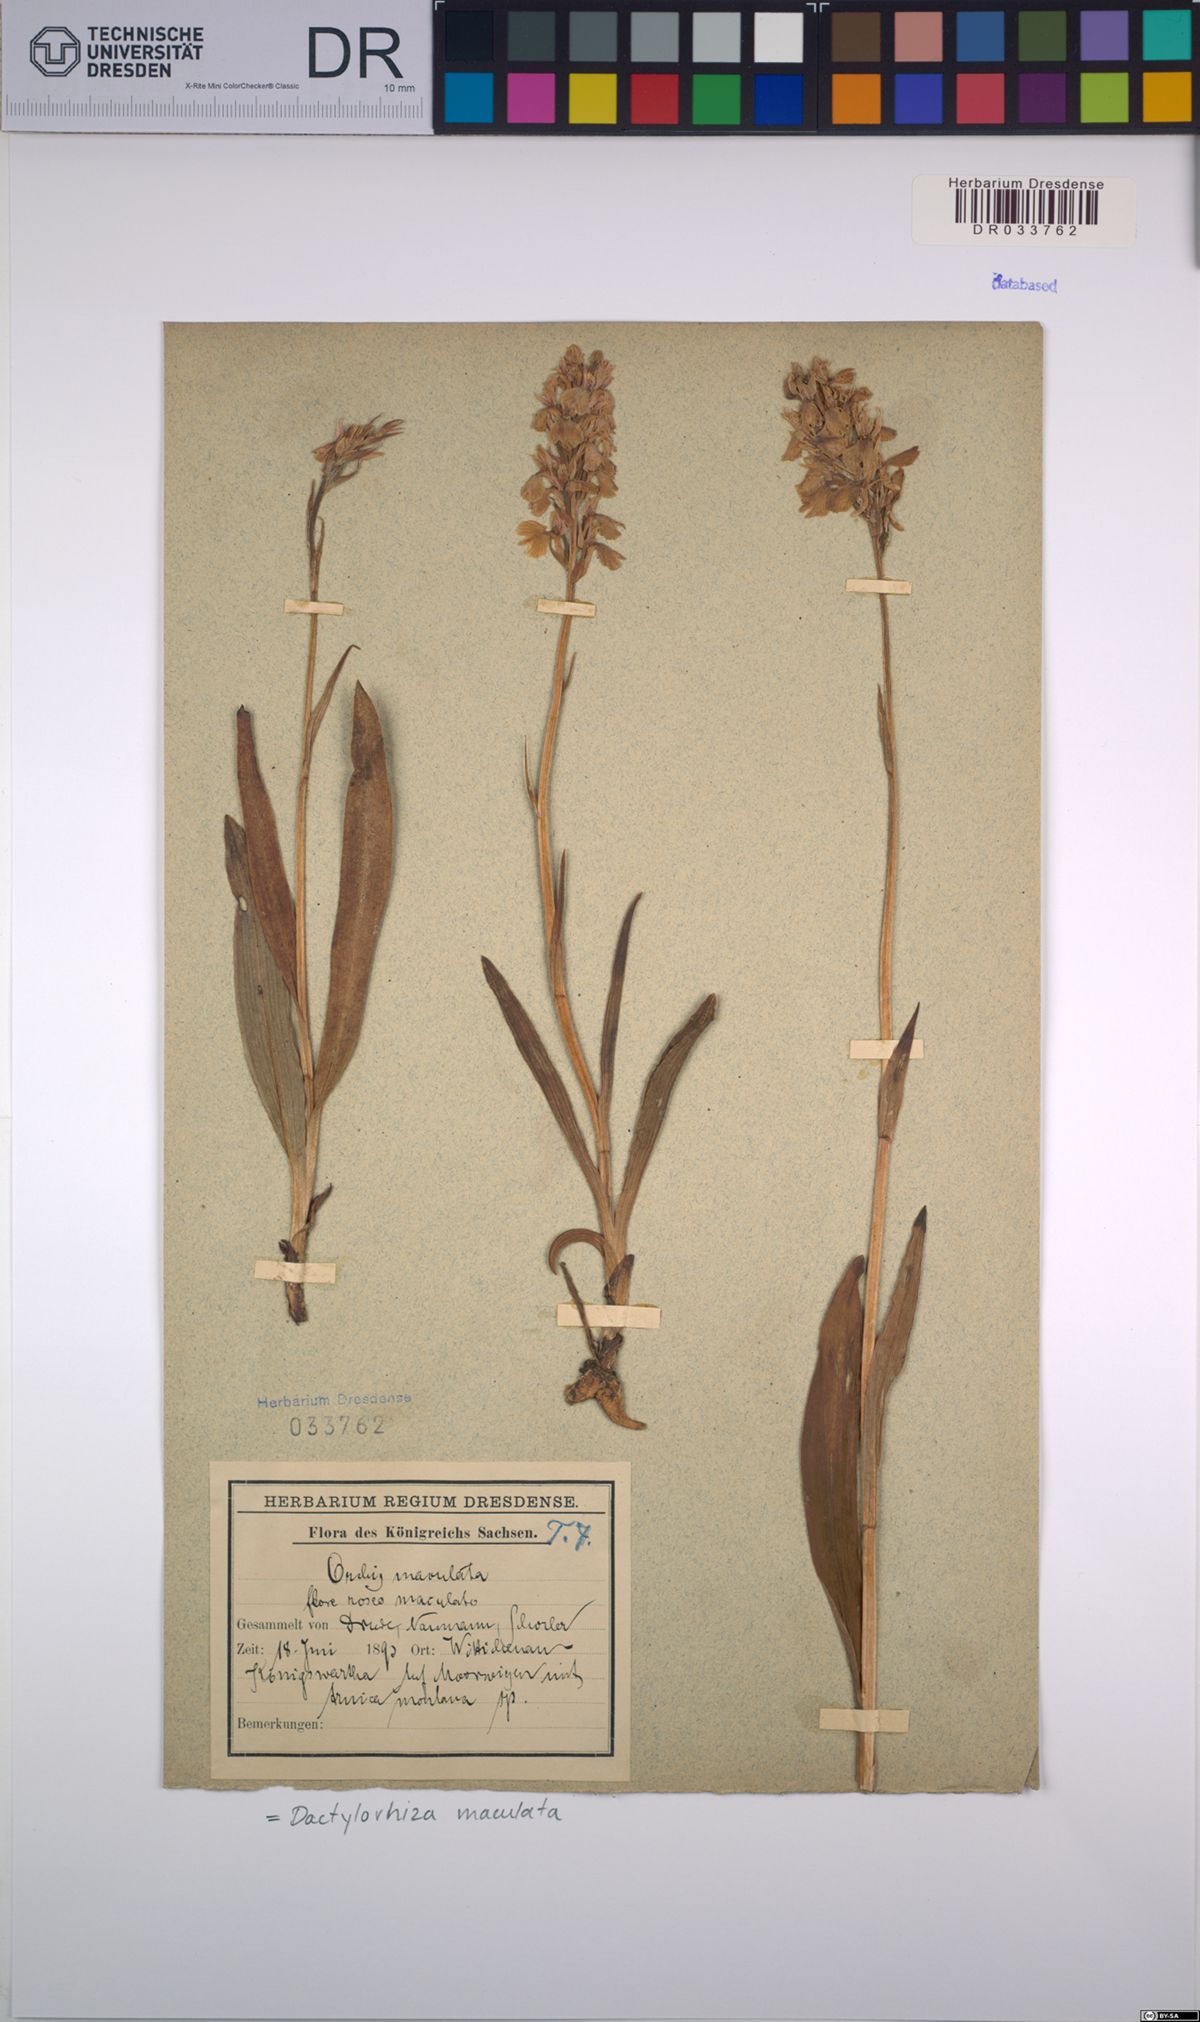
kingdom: Plantae
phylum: Tracheophyta
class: Liliopsida
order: Asparagales
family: Orchidaceae
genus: Dactylorhiza
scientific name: Dactylorhiza maculata
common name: Heath spotted-orchid
